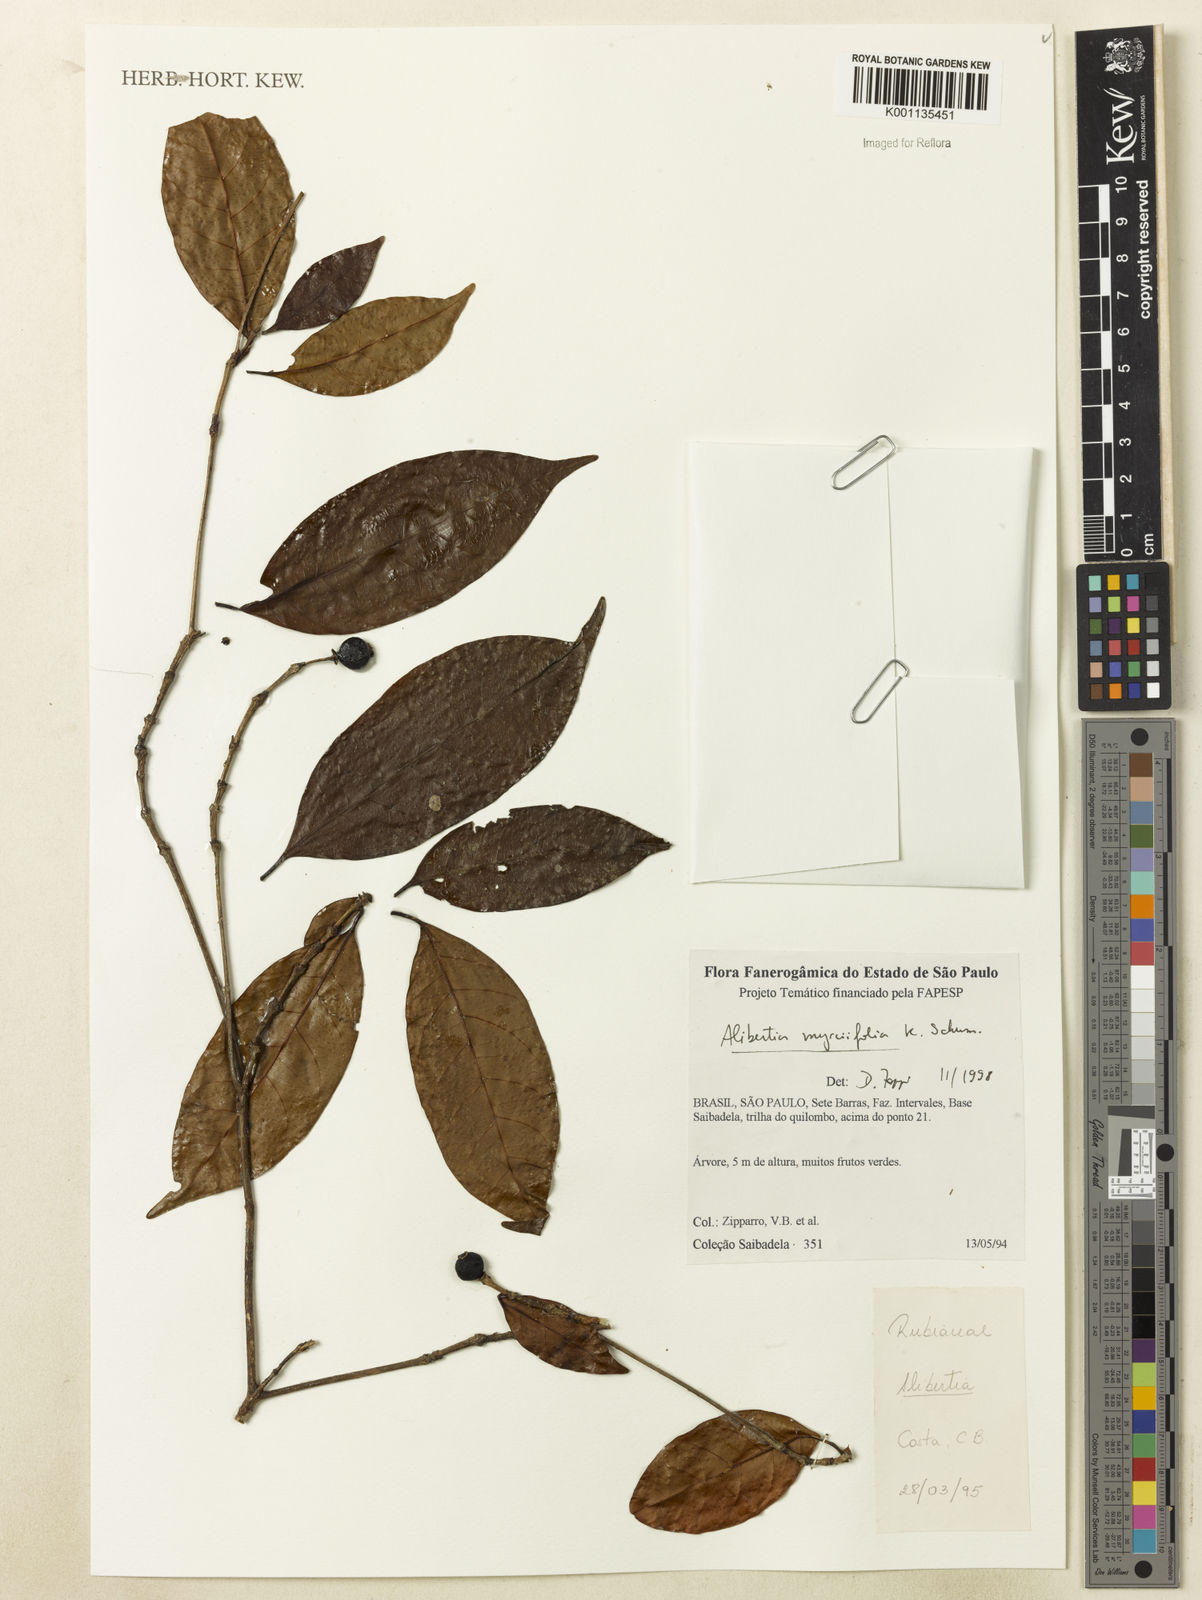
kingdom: Plantae
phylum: Tracheophyta
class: Magnoliopsida
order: Gentianales
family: Rubiaceae
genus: Cordiera
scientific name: Cordiera myrciifolia
